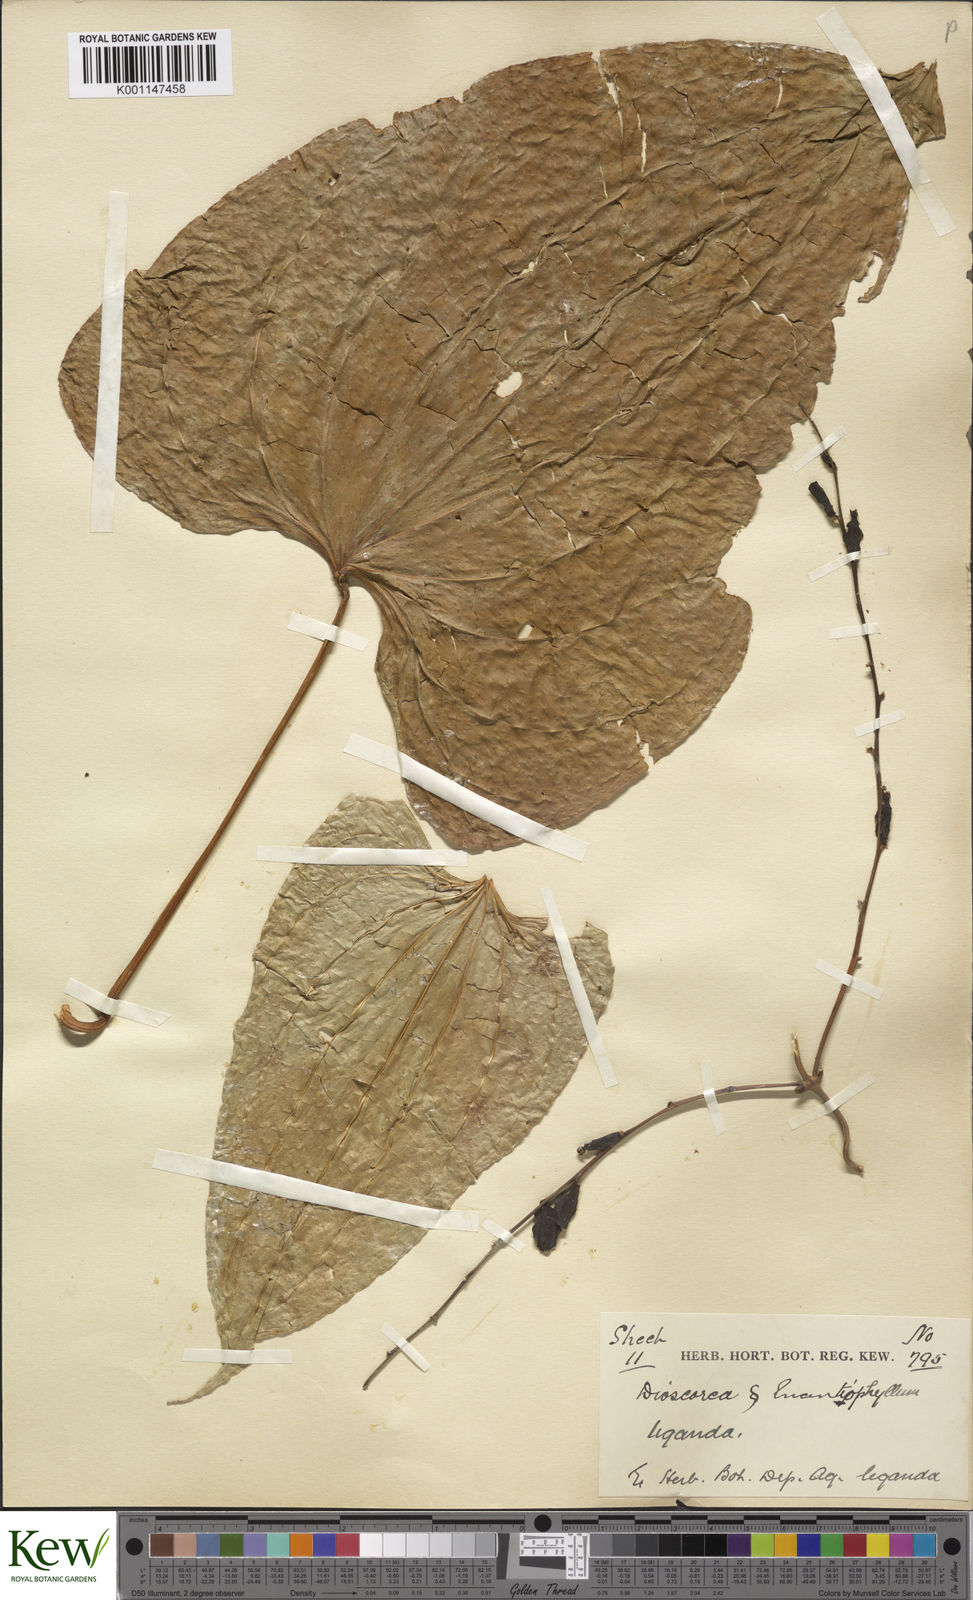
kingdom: Plantae
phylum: Tracheophyta
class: Liliopsida
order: Dioscoreales
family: Dioscoreaceae
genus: Dioscorea
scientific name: Dioscorea
